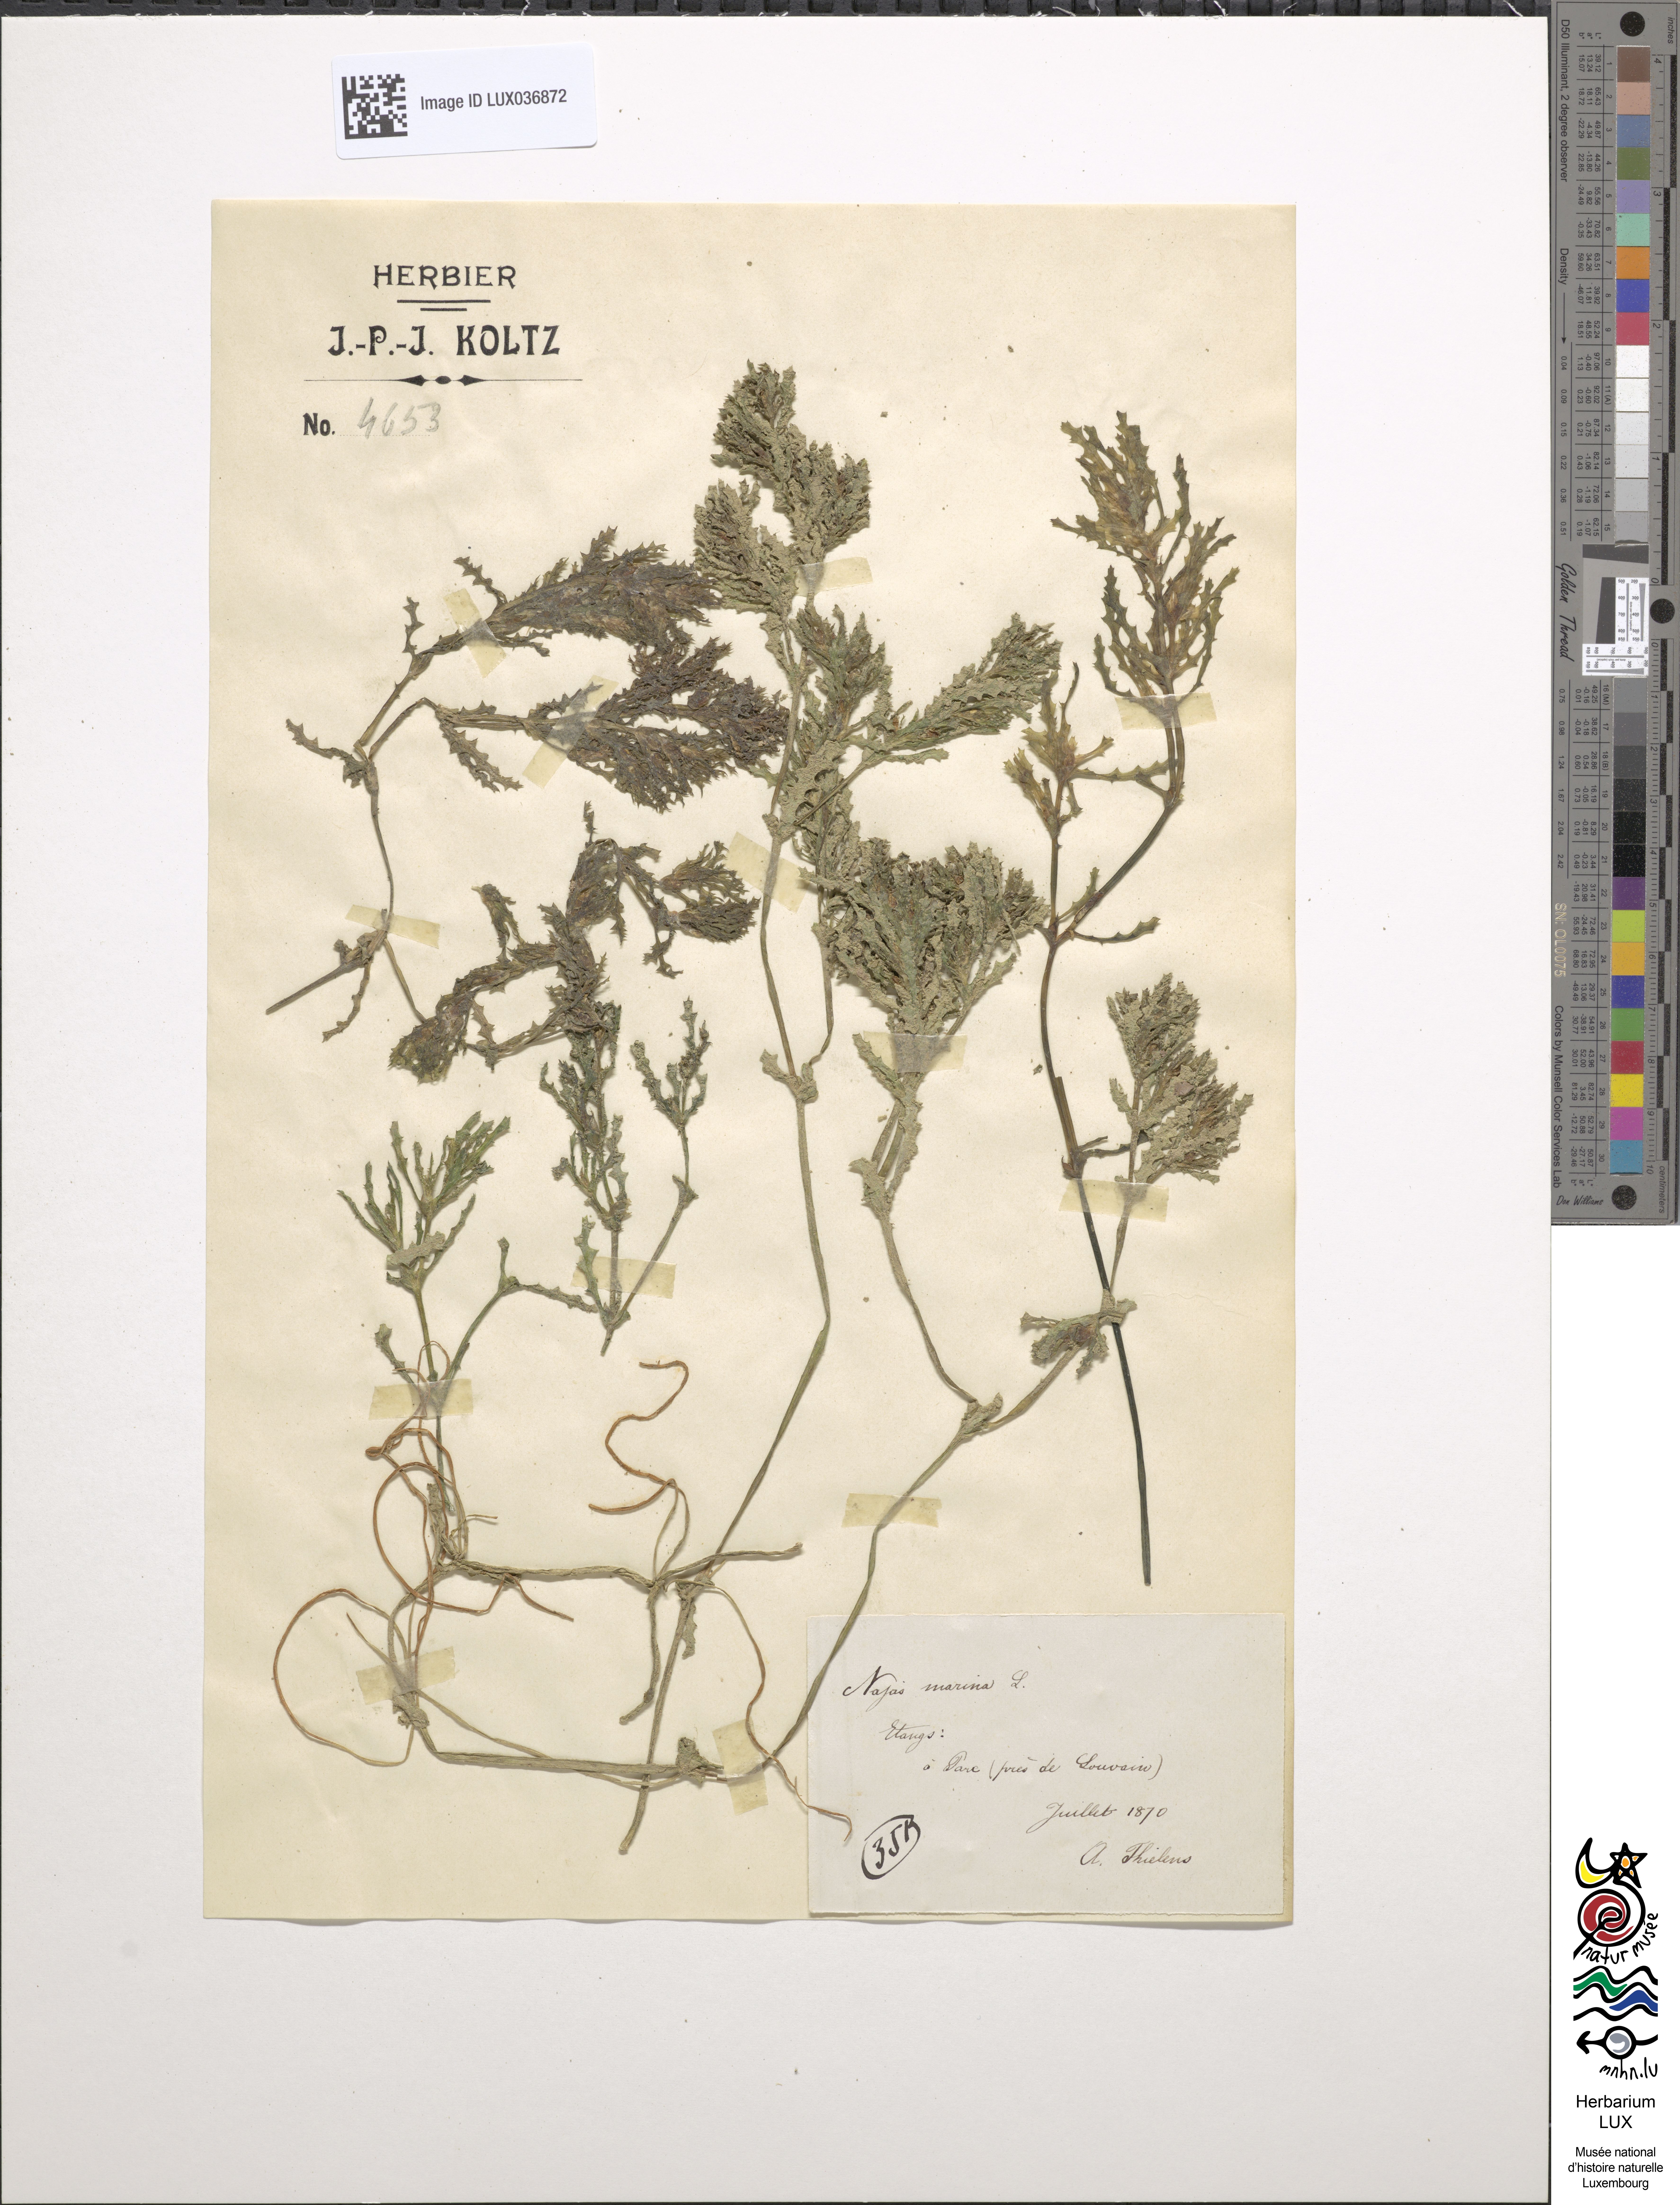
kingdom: Plantae
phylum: Tracheophyta
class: Liliopsida
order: Alismatales
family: Hydrocharitaceae
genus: Najas
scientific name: Najas marina
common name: Holly-leaved naiad
